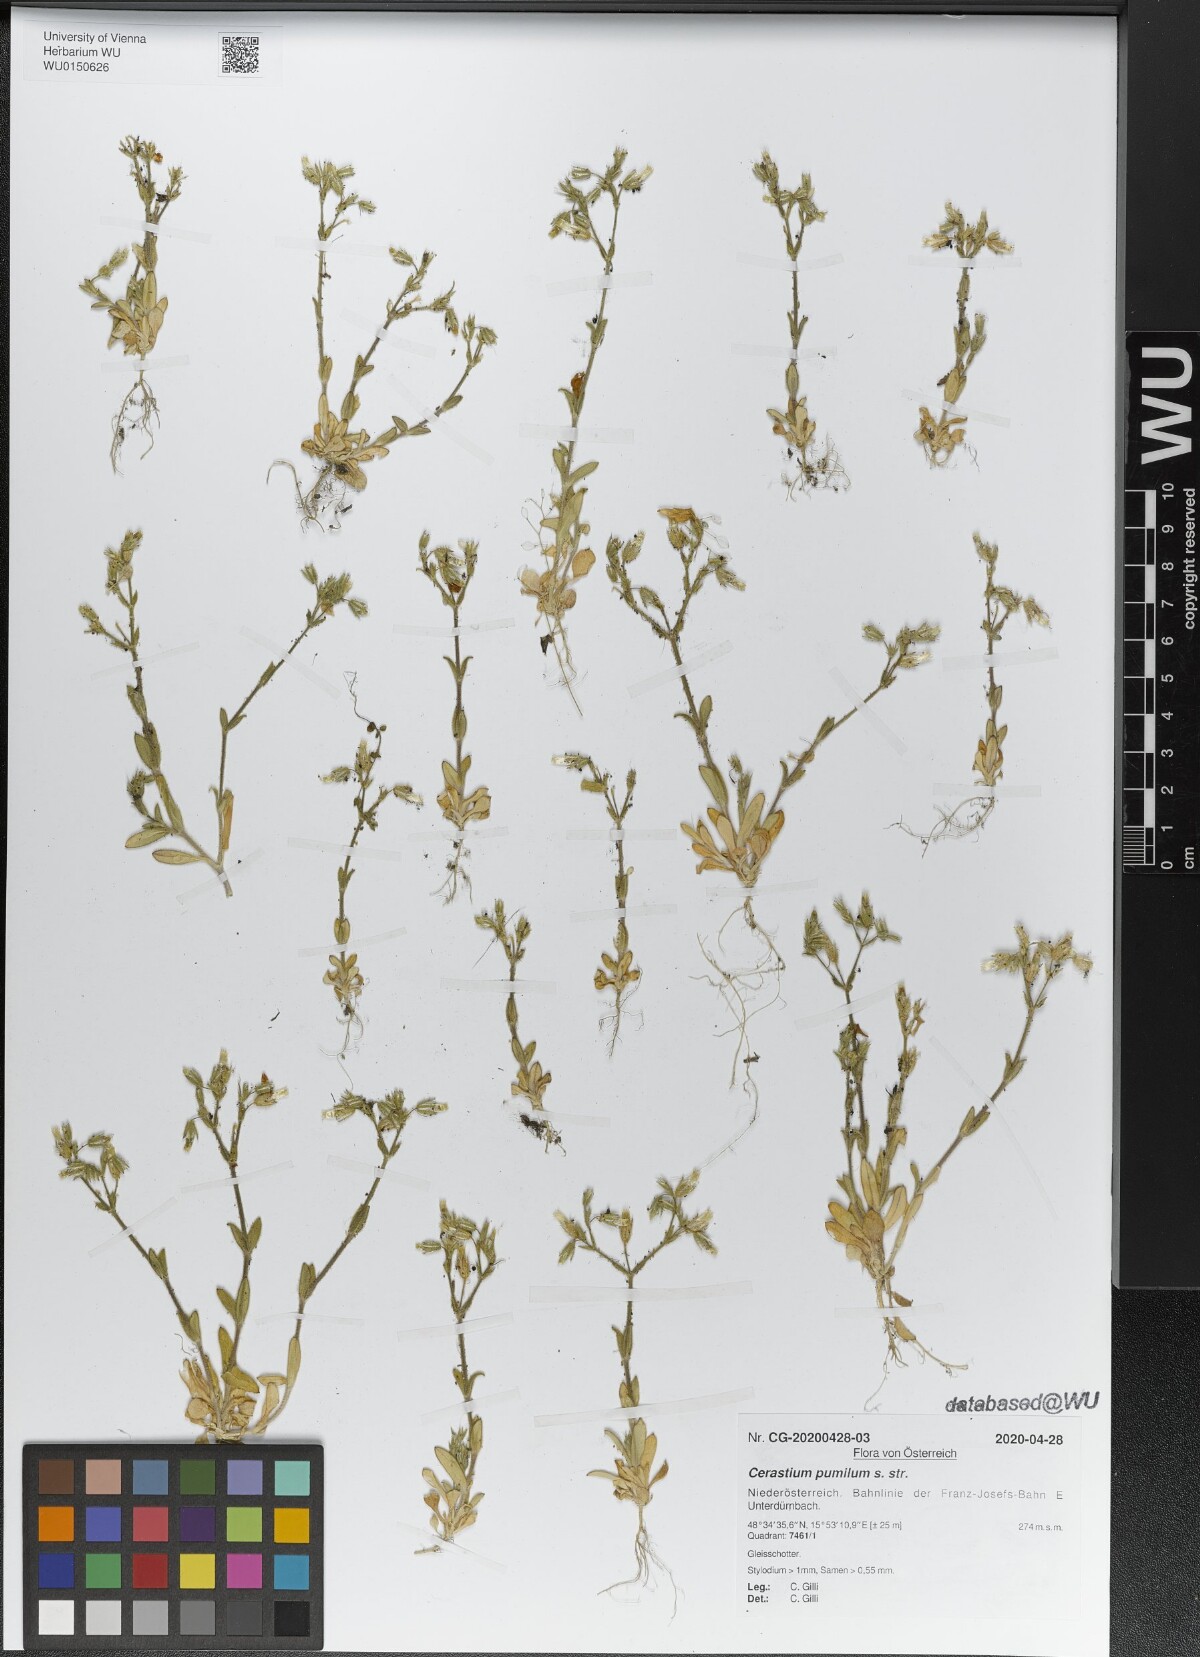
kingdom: Plantae
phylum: Tracheophyta
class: Magnoliopsida
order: Caryophyllales
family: Caryophyllaceae
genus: Cerastium
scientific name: Cerastium pumilum
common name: Dwarf mouse-ear
